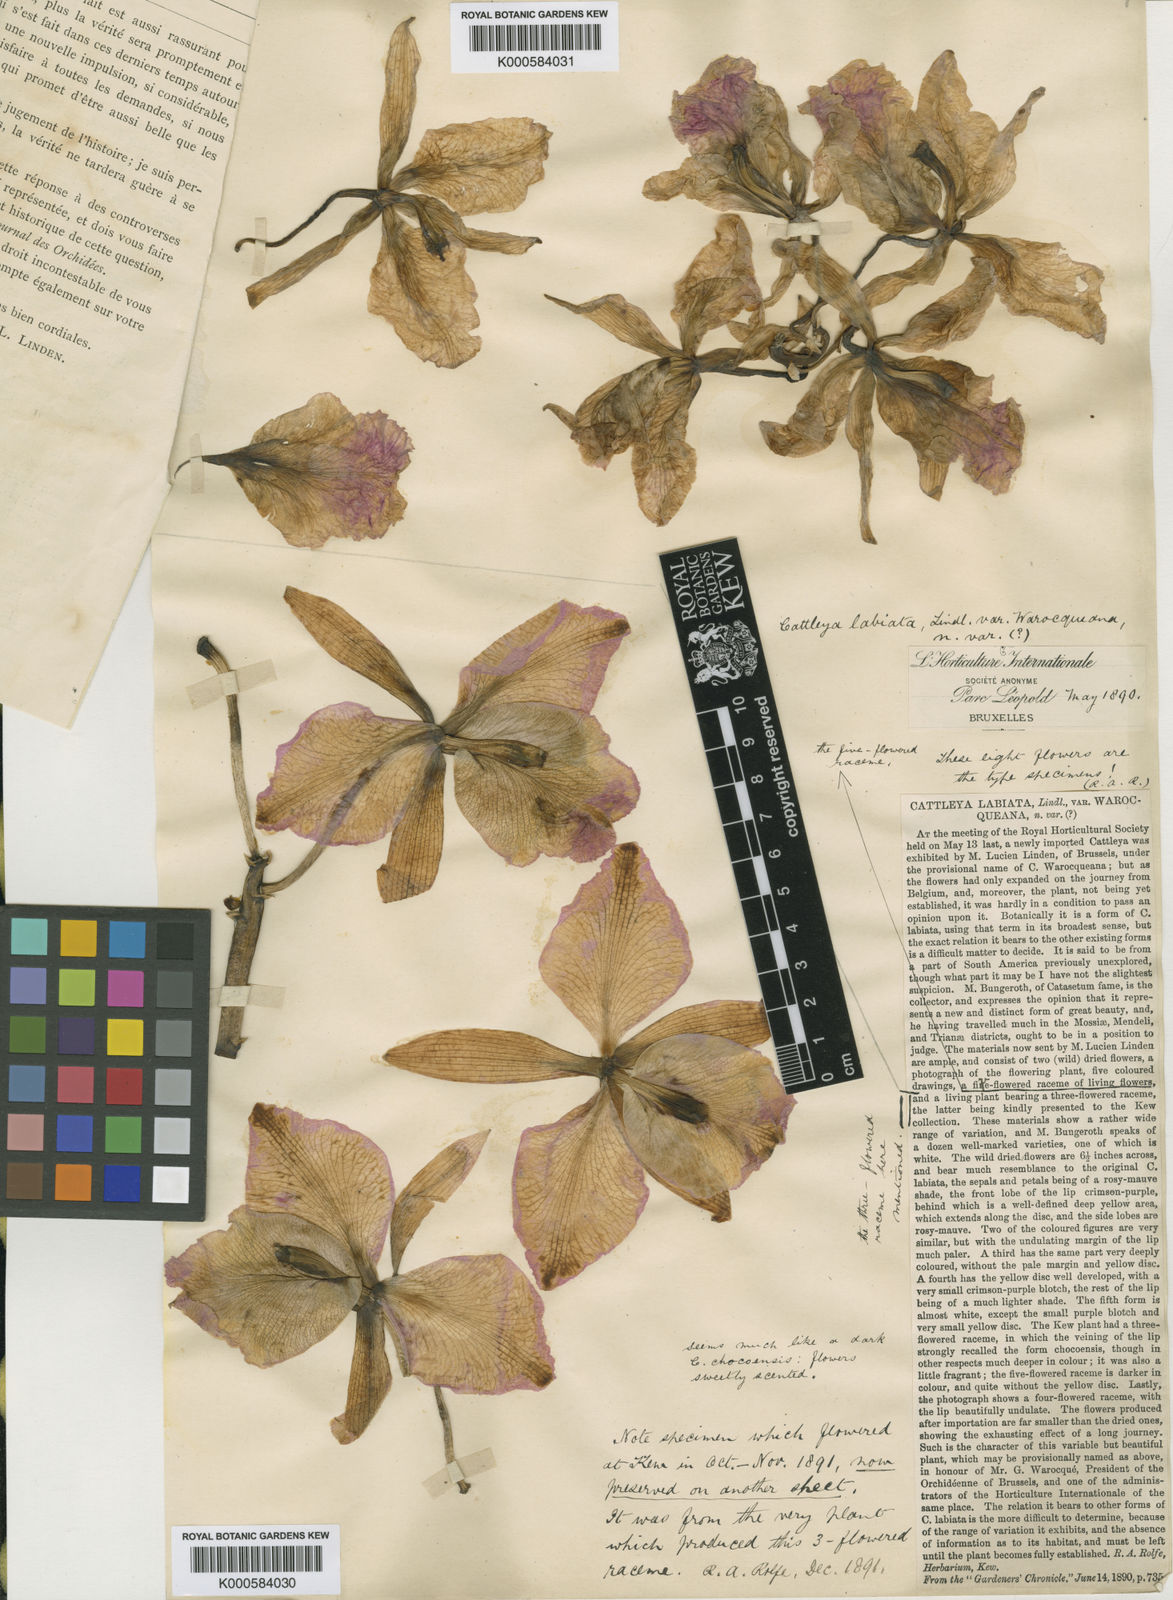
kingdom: Plantae
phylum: Tracheophyta
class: Liliopsida
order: Asparagales
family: Orchidaceae
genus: Cattleya
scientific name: Cattleya labiata
